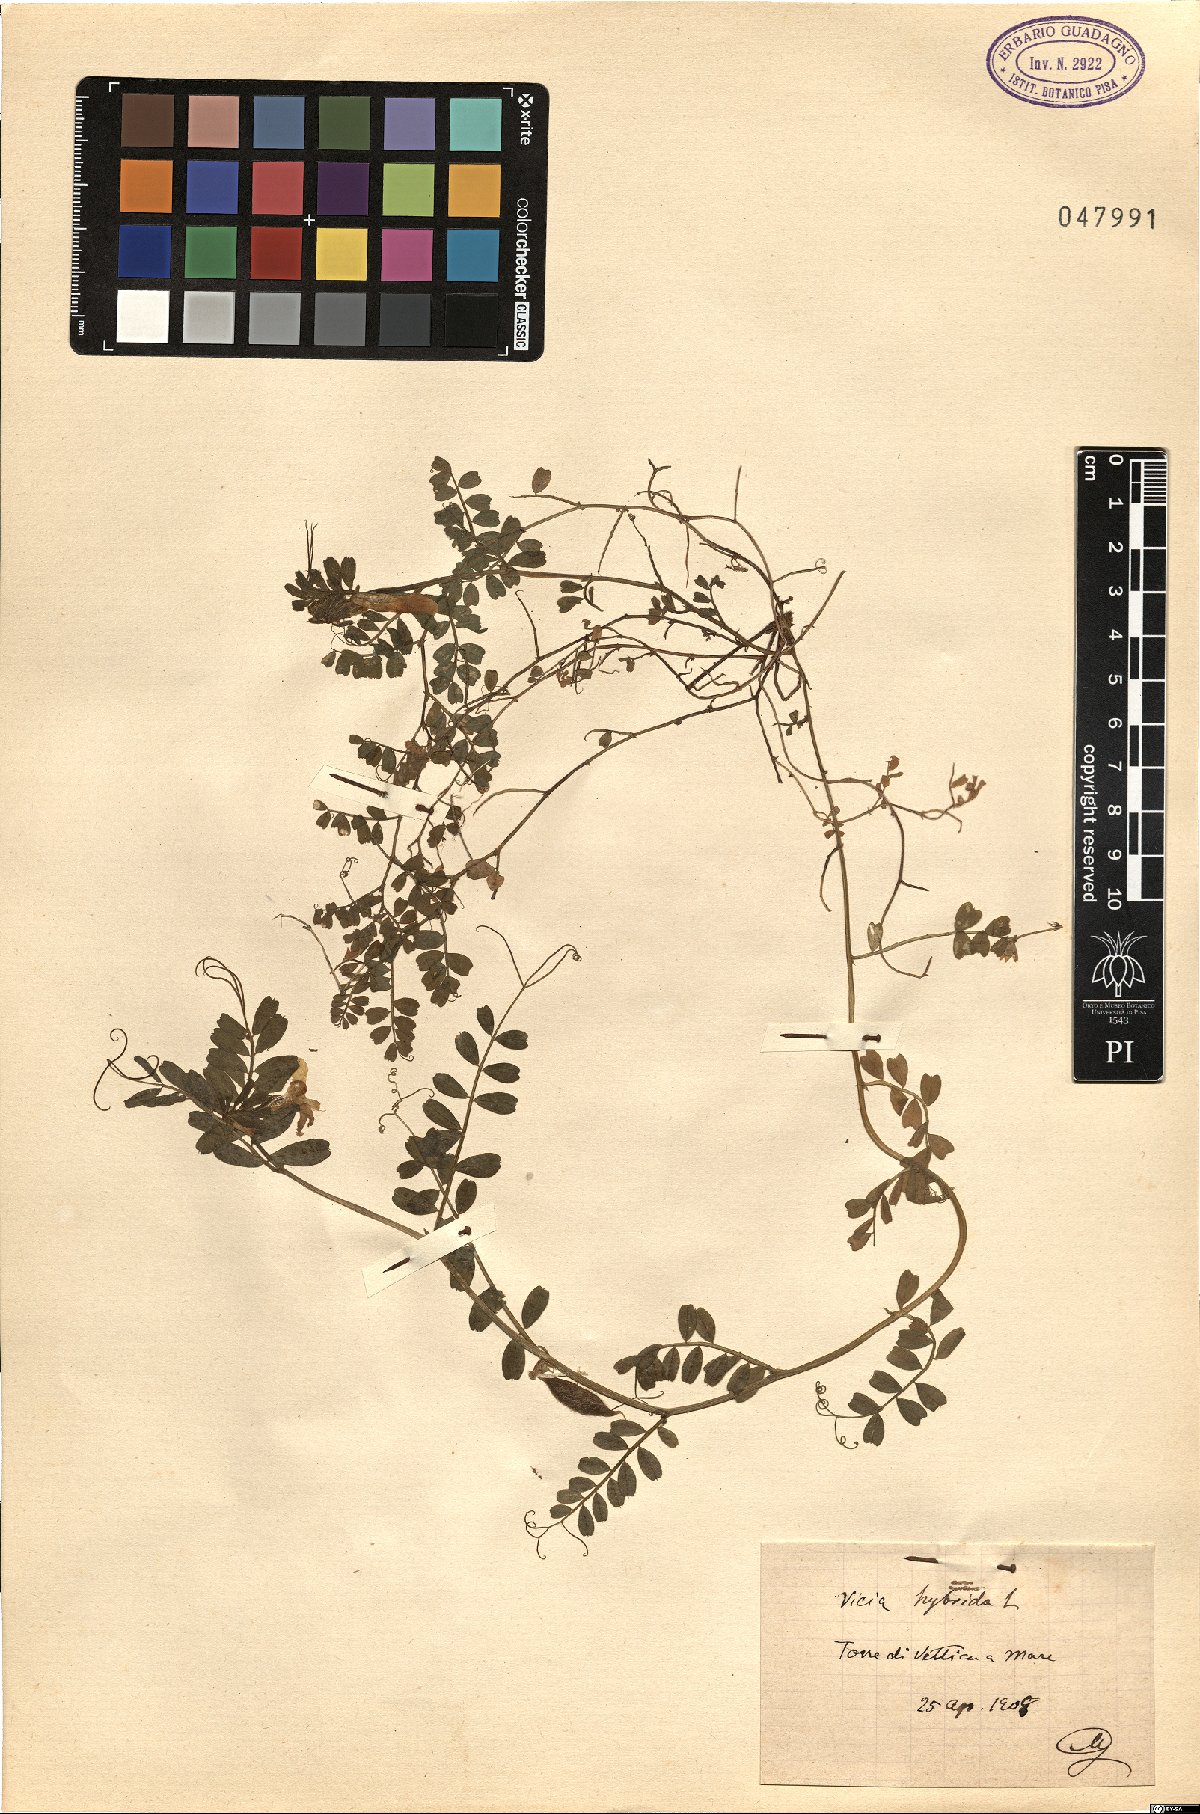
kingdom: Plantae
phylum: Tracheophyta
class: Magnoliopsida
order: Fabales
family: Fabaceae
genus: Vicia
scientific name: Vicia hybrida
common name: Hairy yellow vetch
